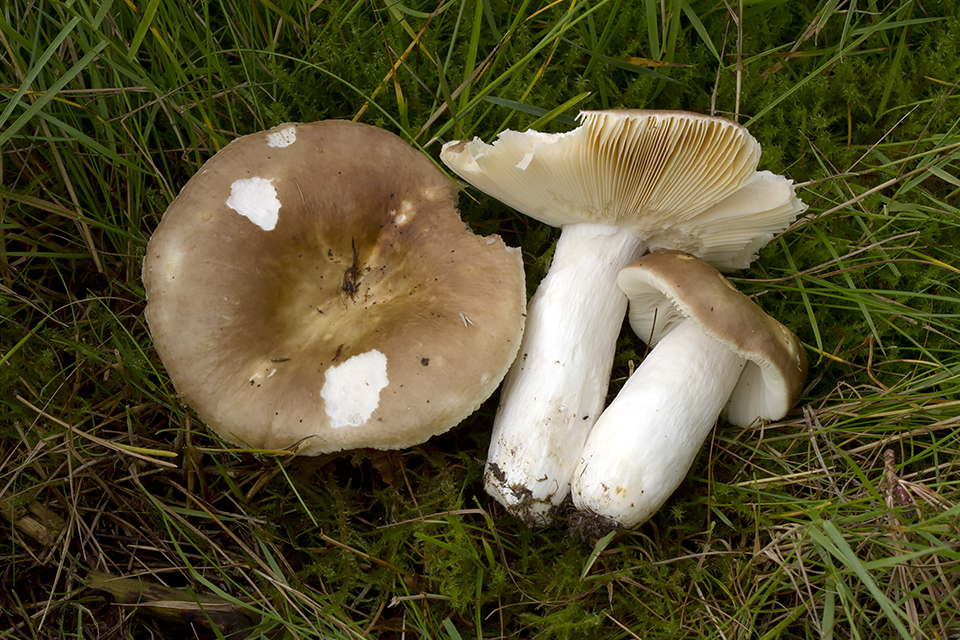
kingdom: Fungi
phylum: Basidiomycota
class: Agaricomycetes
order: Russulales
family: Russulaceae
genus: Russula
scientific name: Russula integra
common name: mandel-skørhat
